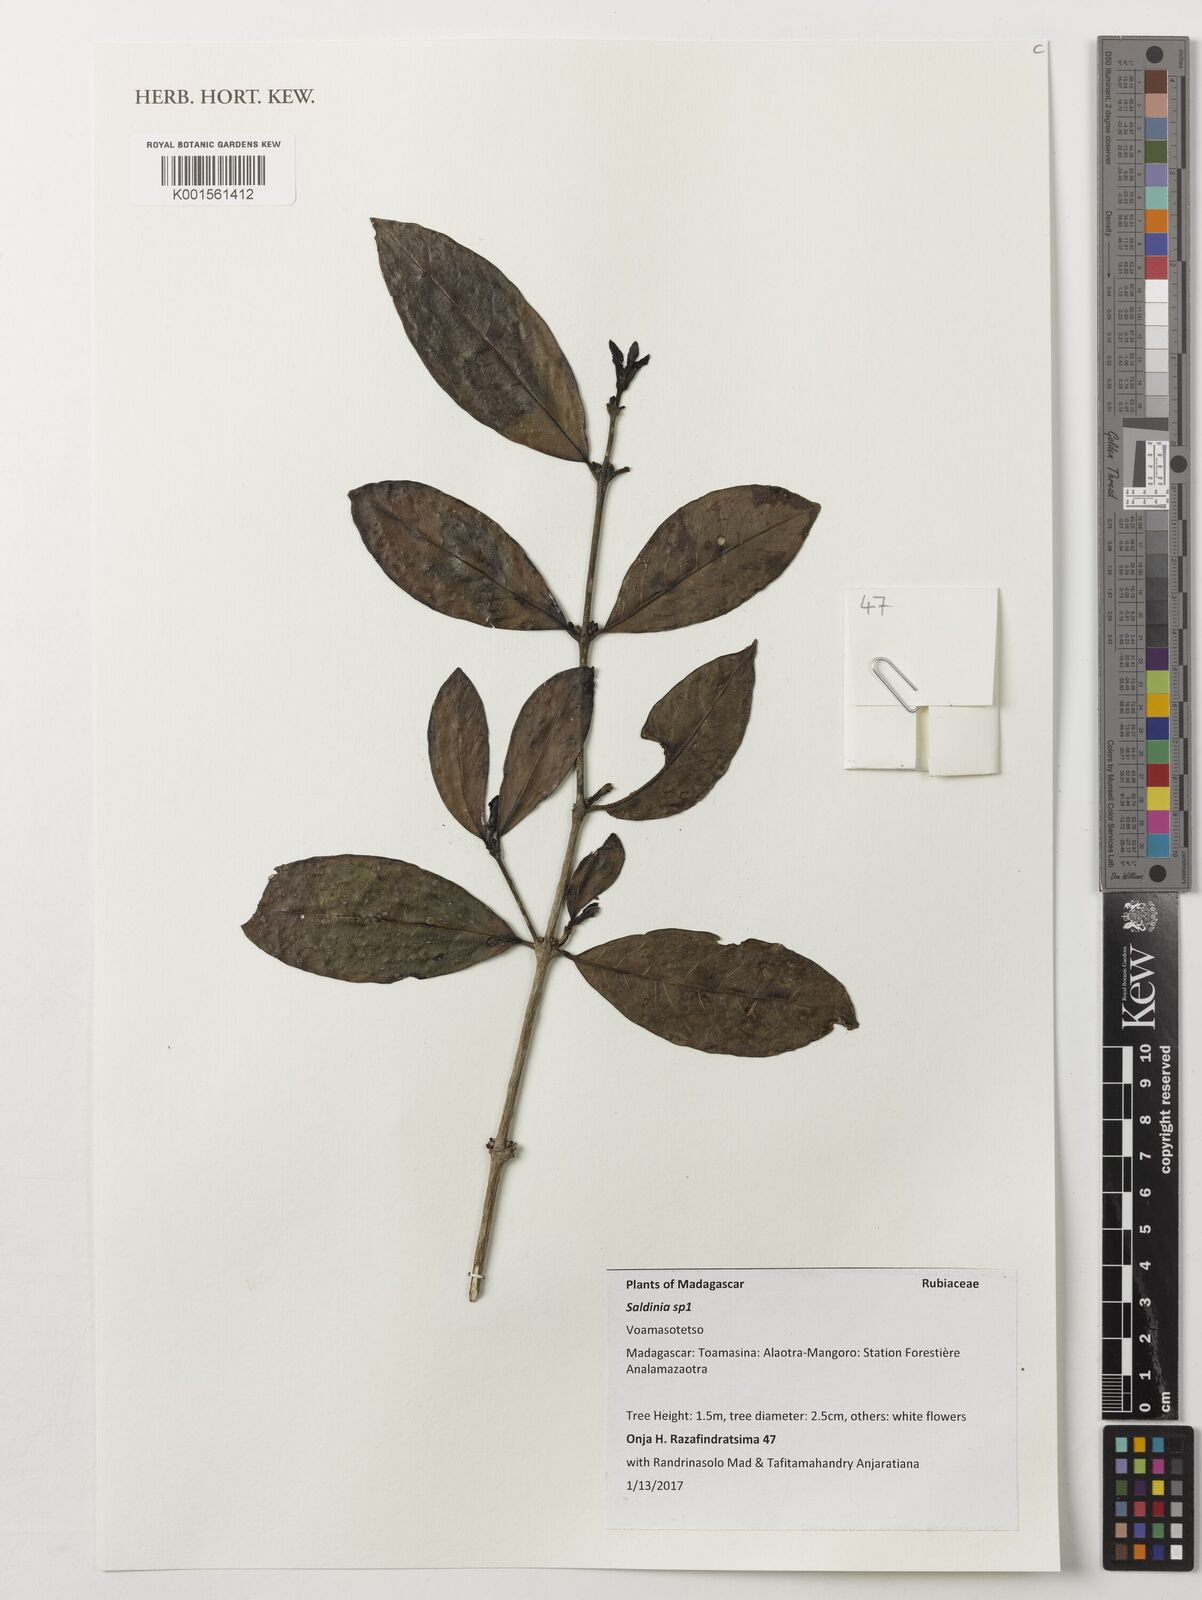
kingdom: Plantae
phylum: Tracheophyta
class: Magnoliopsida
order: Gentianales
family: Rubiaceae
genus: Saldinia
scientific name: Saldinia
